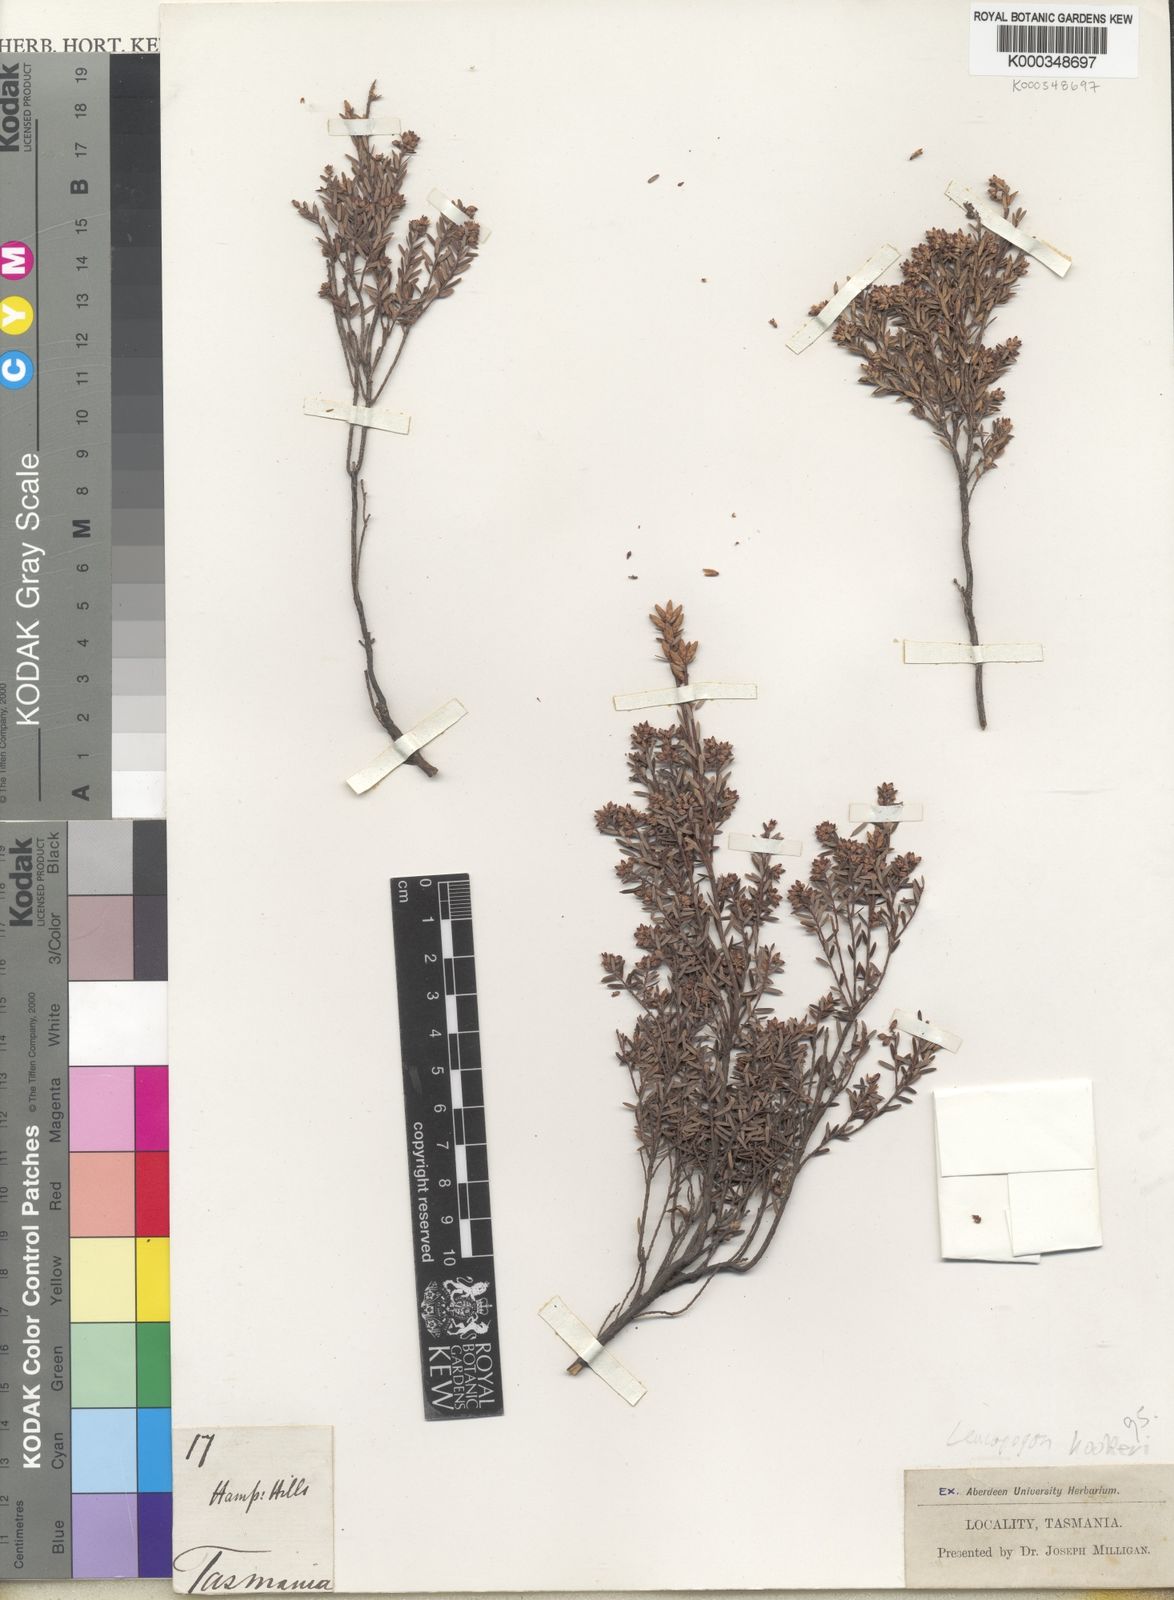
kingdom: Plantae
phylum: Tracheophyta
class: Magnoliopsida
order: Ericales
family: Ericaceae
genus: Acrothamnus
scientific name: Acrothamnus hookeri
